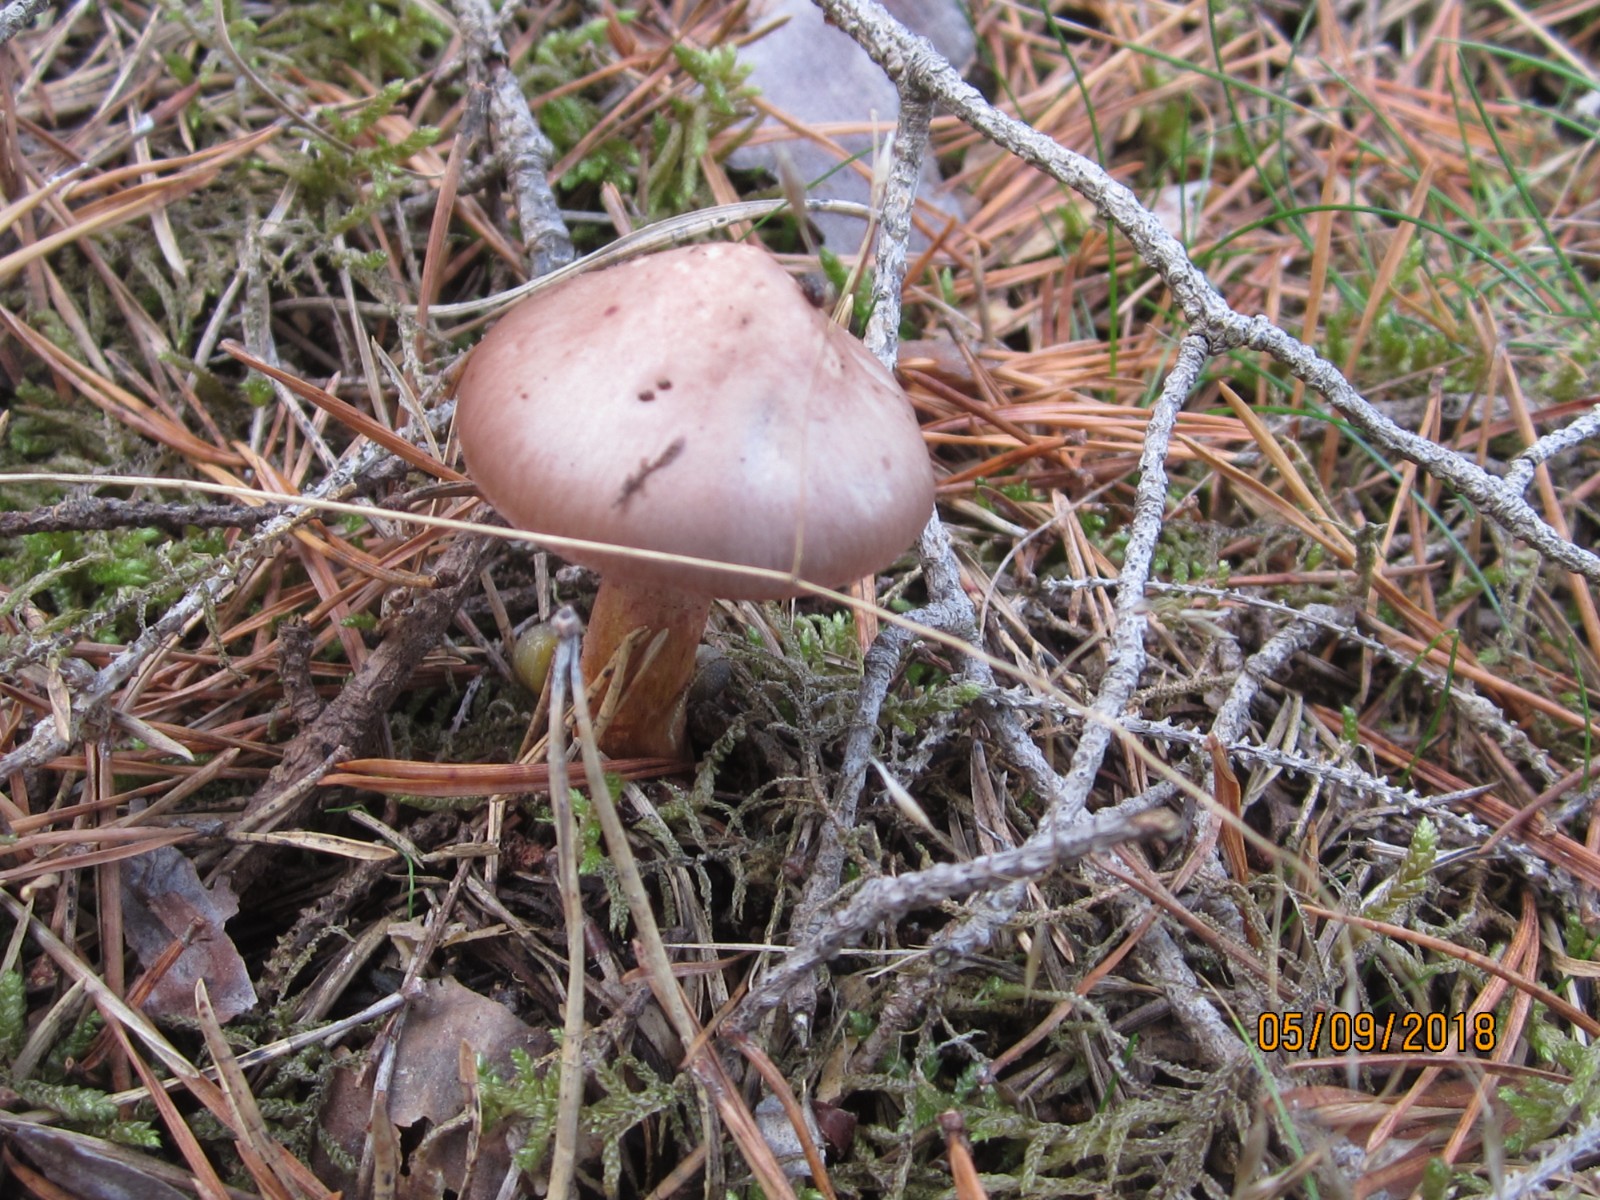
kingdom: Fungi
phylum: Basidiomycota
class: Agaricomycetes
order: Boletales
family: Gomphidiaceae
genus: Chroogomphus
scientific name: Chroogomphus rutilus
